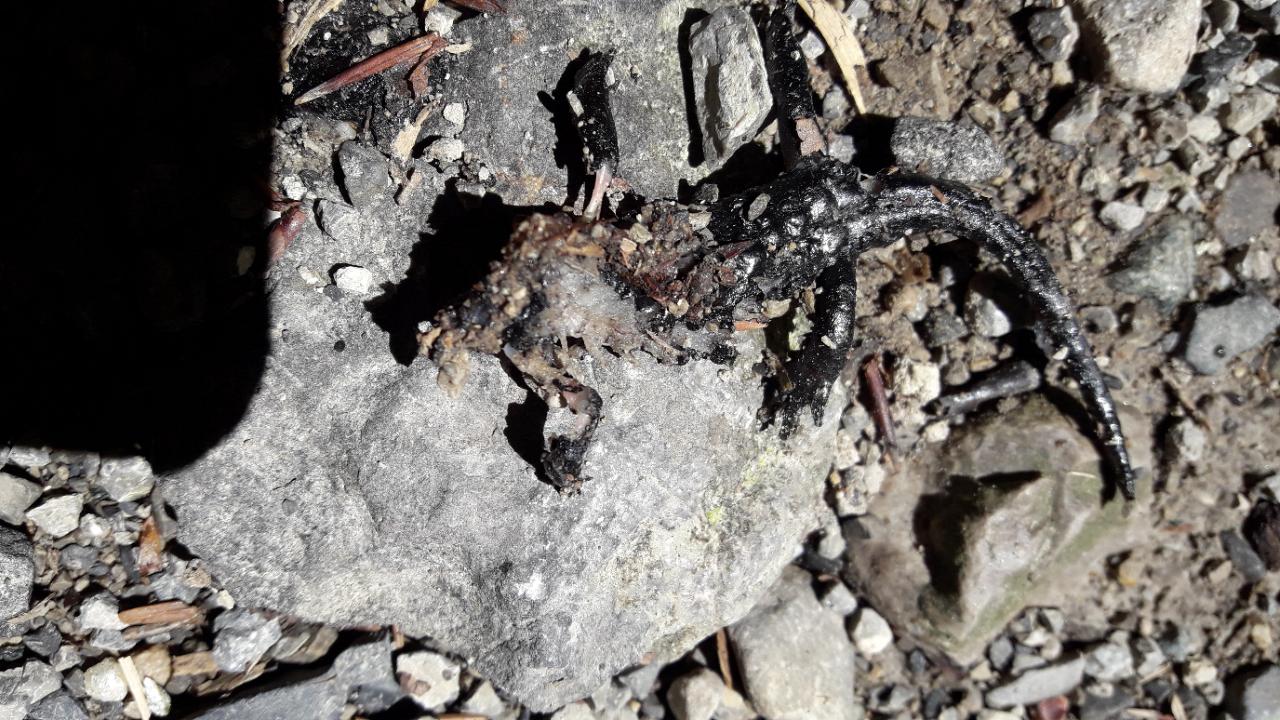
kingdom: Animalia
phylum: Chordata
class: Amphibia
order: Caudata
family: Salamandridae
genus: Salamandra
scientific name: Salamandra atra
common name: Alpine salamander
